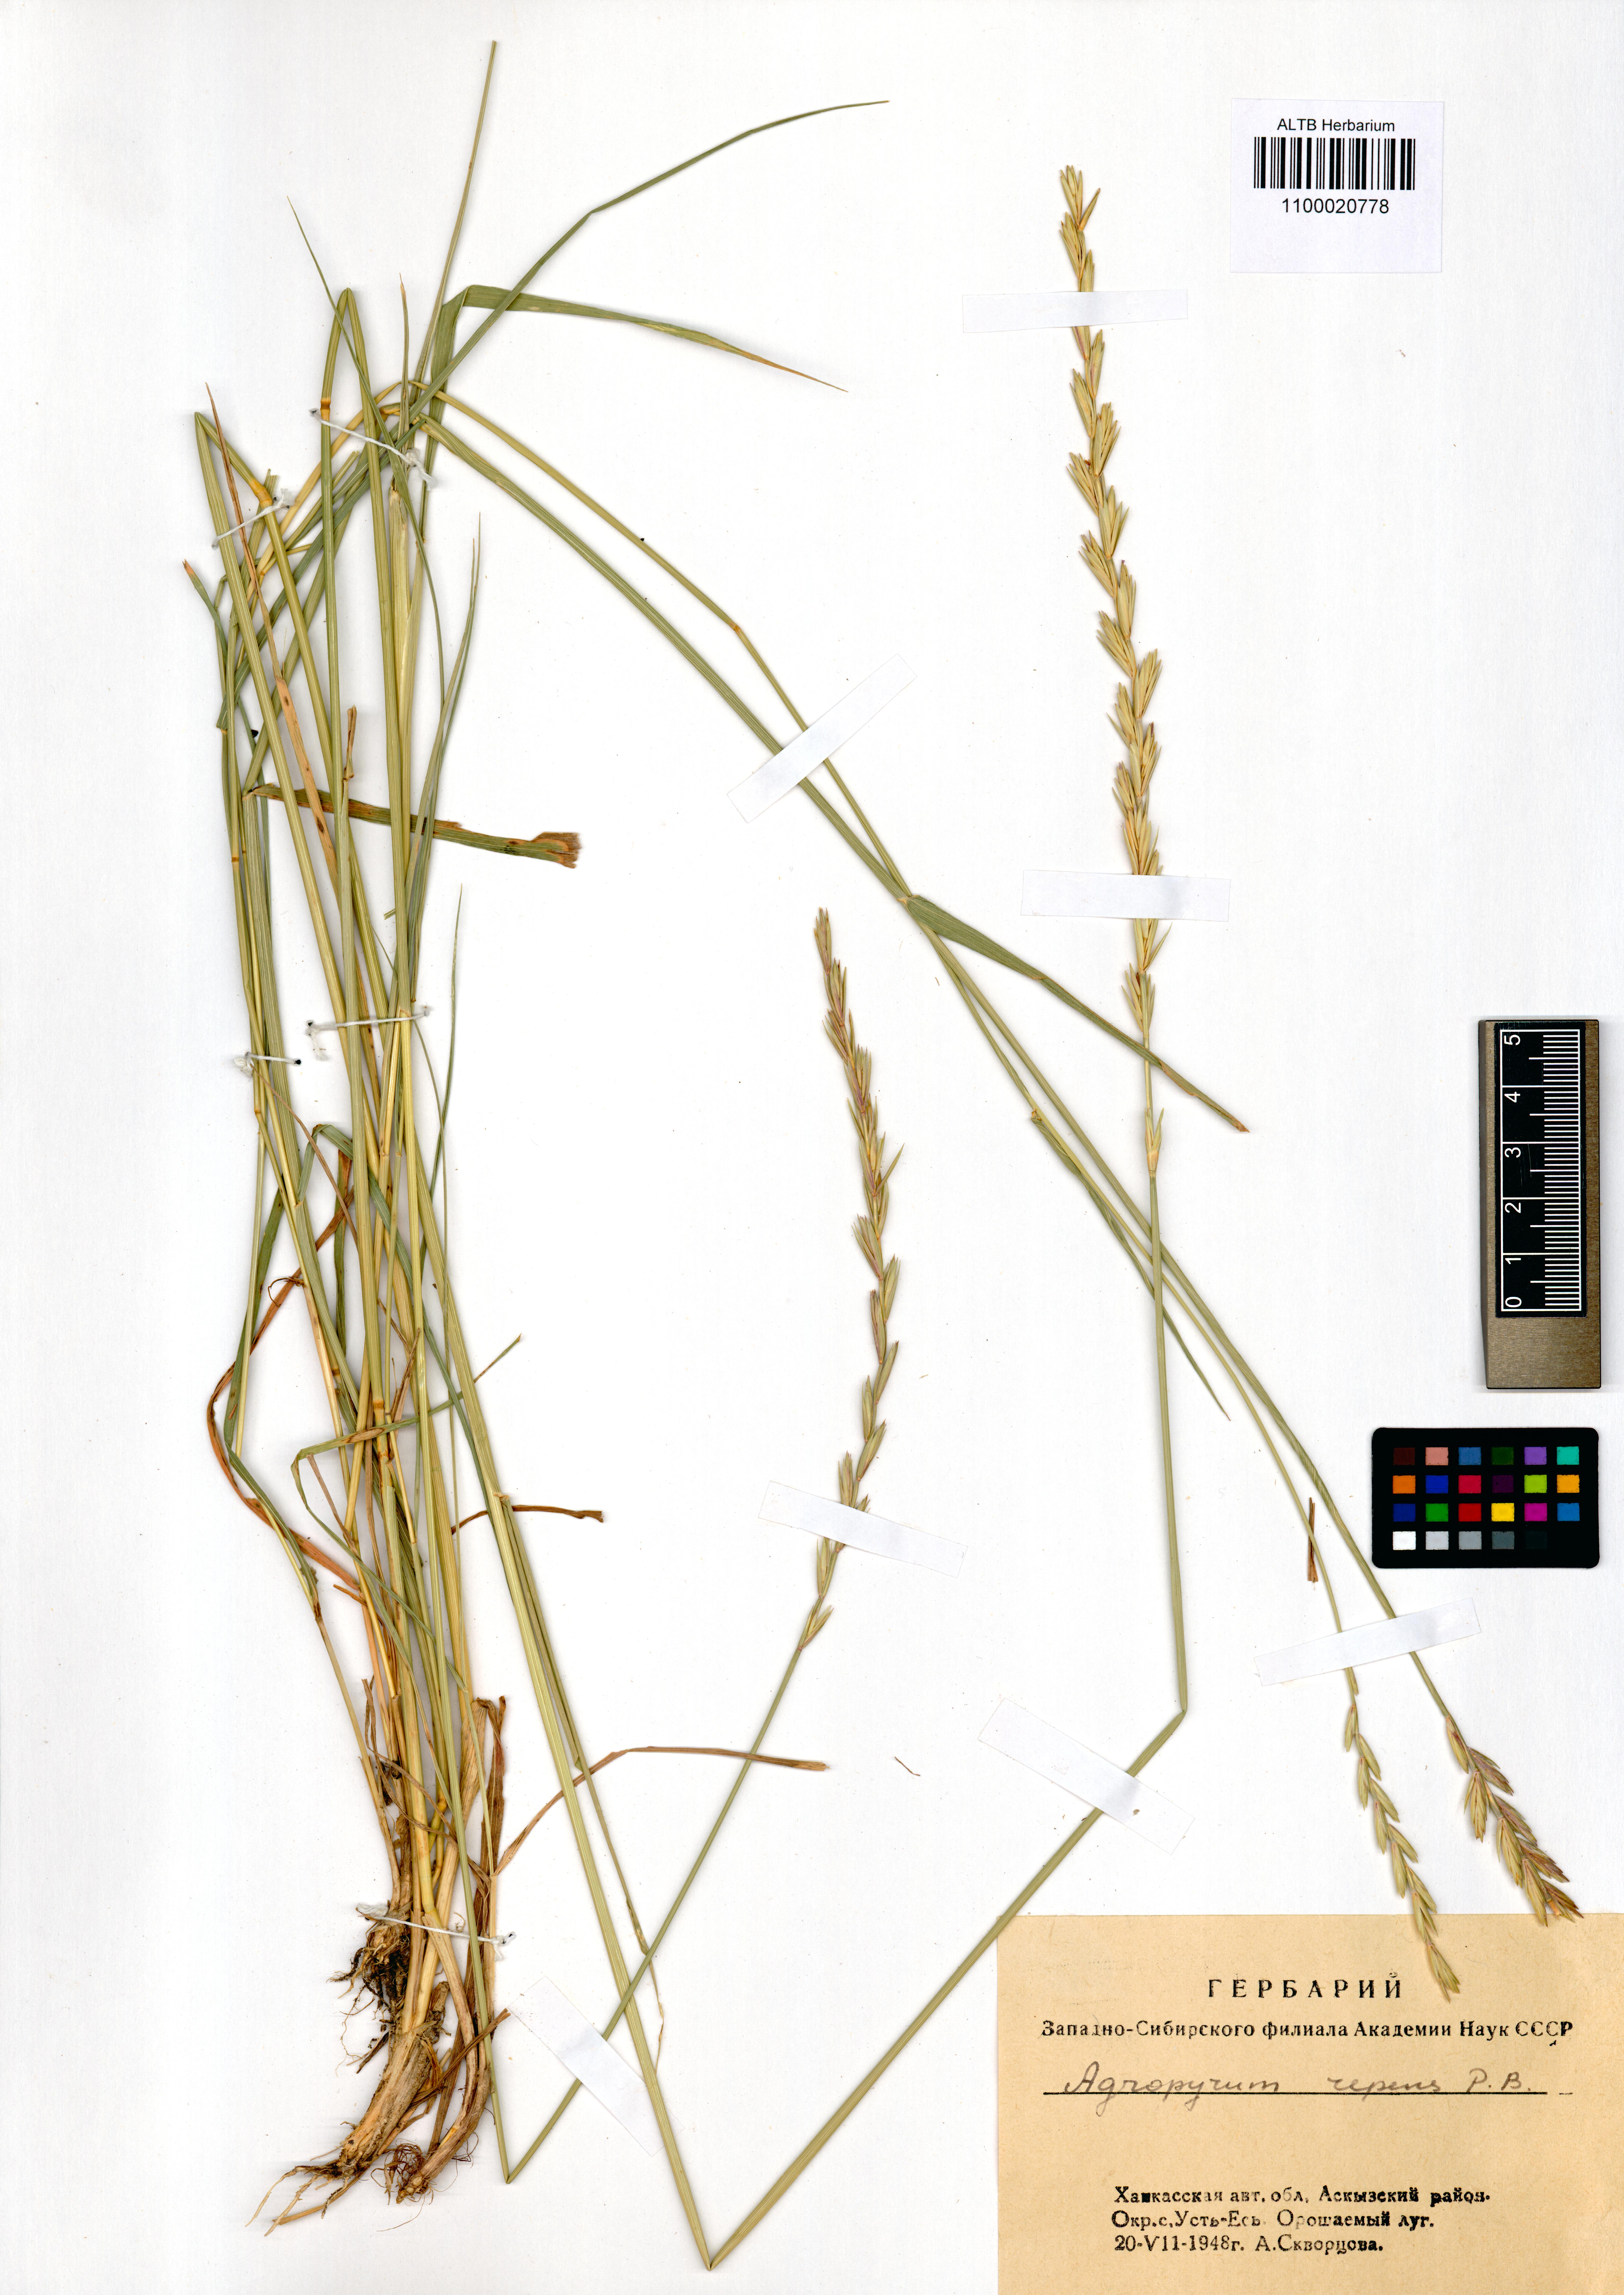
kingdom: Plantae
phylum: Tracheophyta
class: Liliopsida
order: Poales
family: Poaceae
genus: Elymus
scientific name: Elymus repens
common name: Quackgrass
